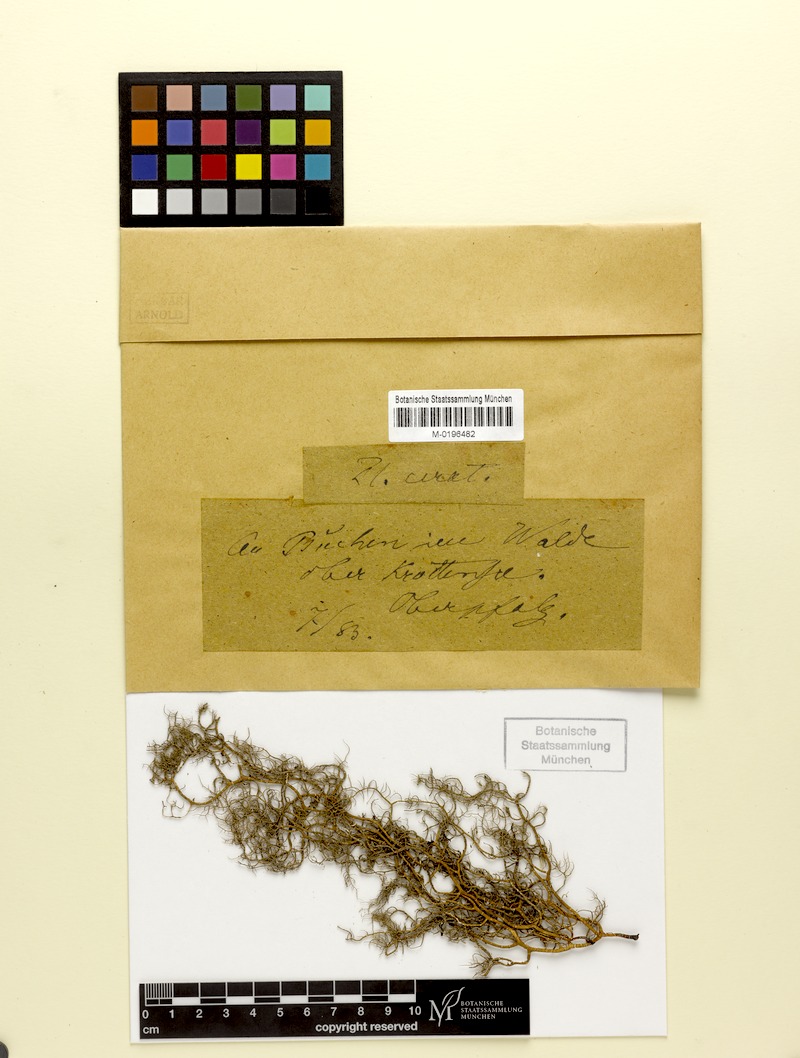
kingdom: Fungi
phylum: Ascomycota
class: Lecanoromycetes
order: Lecanorales
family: Parmeliaceae
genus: Usnea
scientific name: Usnea ceratina
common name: Warty beard lichen
